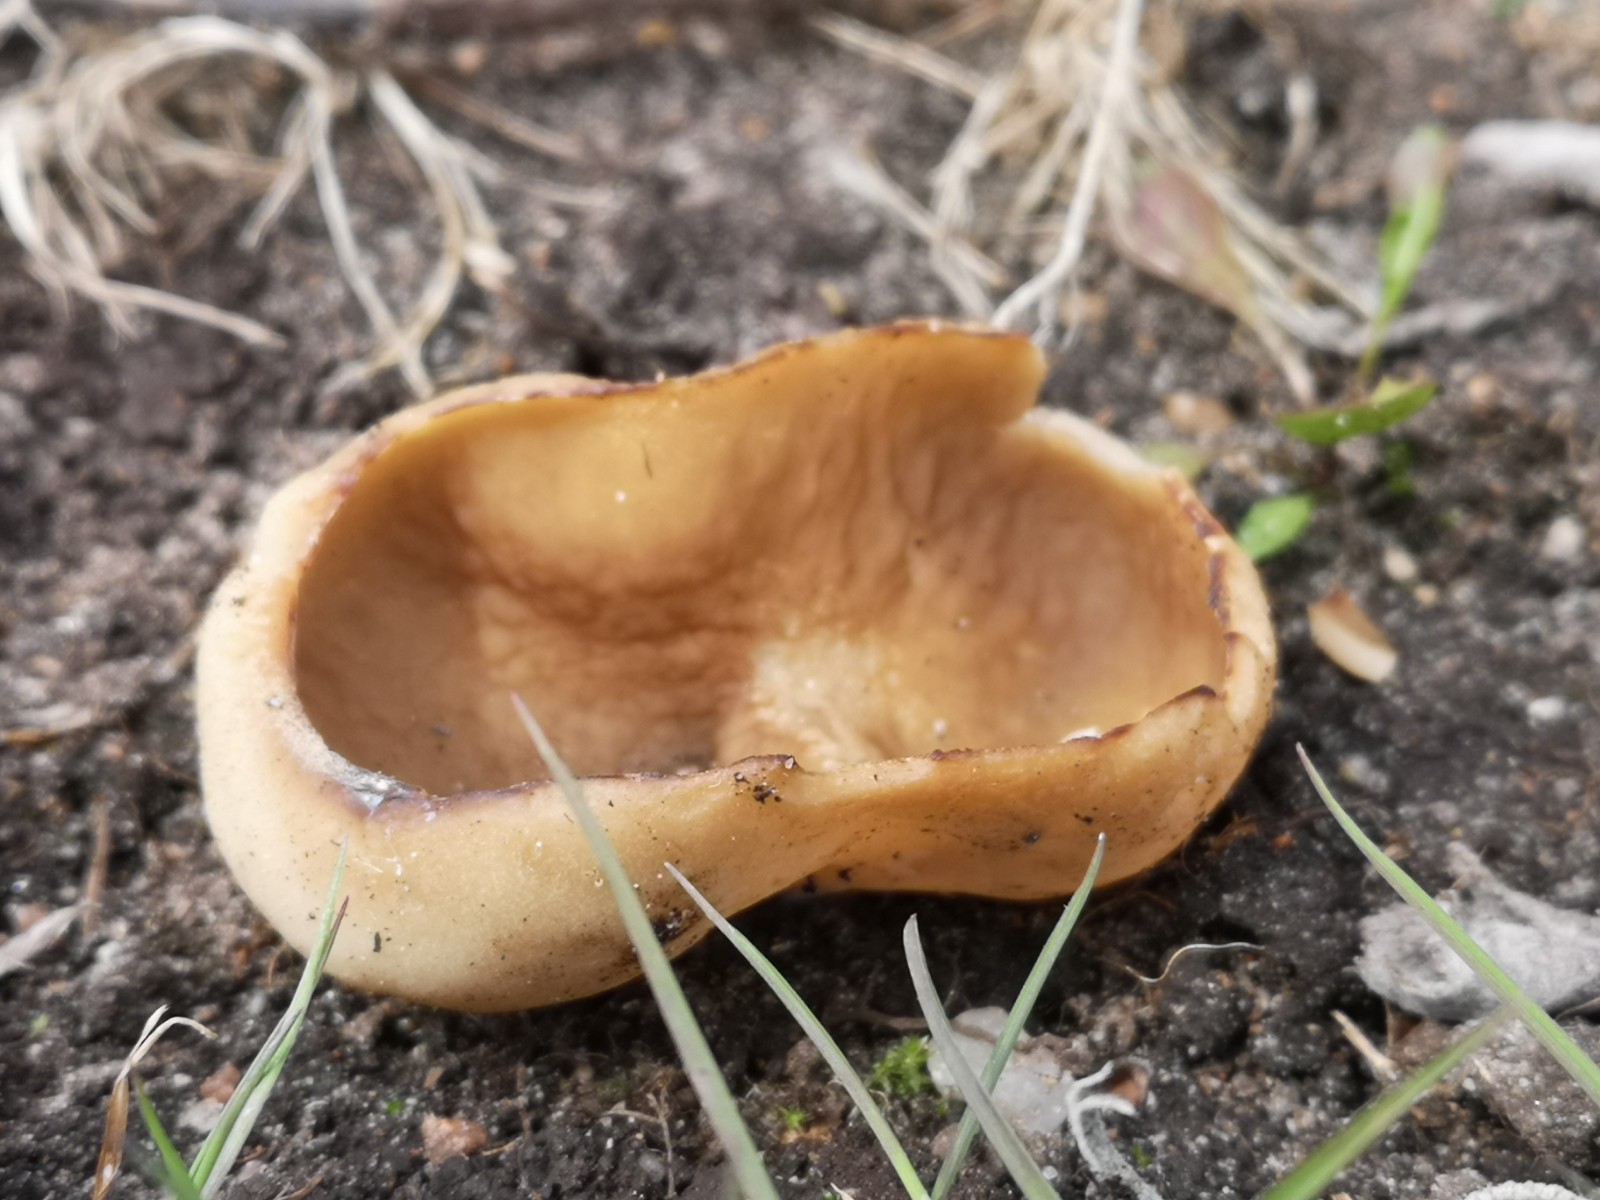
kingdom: Fungi
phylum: Ascomycota
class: Pezizomycetes
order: Pezizales
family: Morchellaceae
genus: Disciotis
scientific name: Disciotis venosa
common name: klor-bægermorkel
